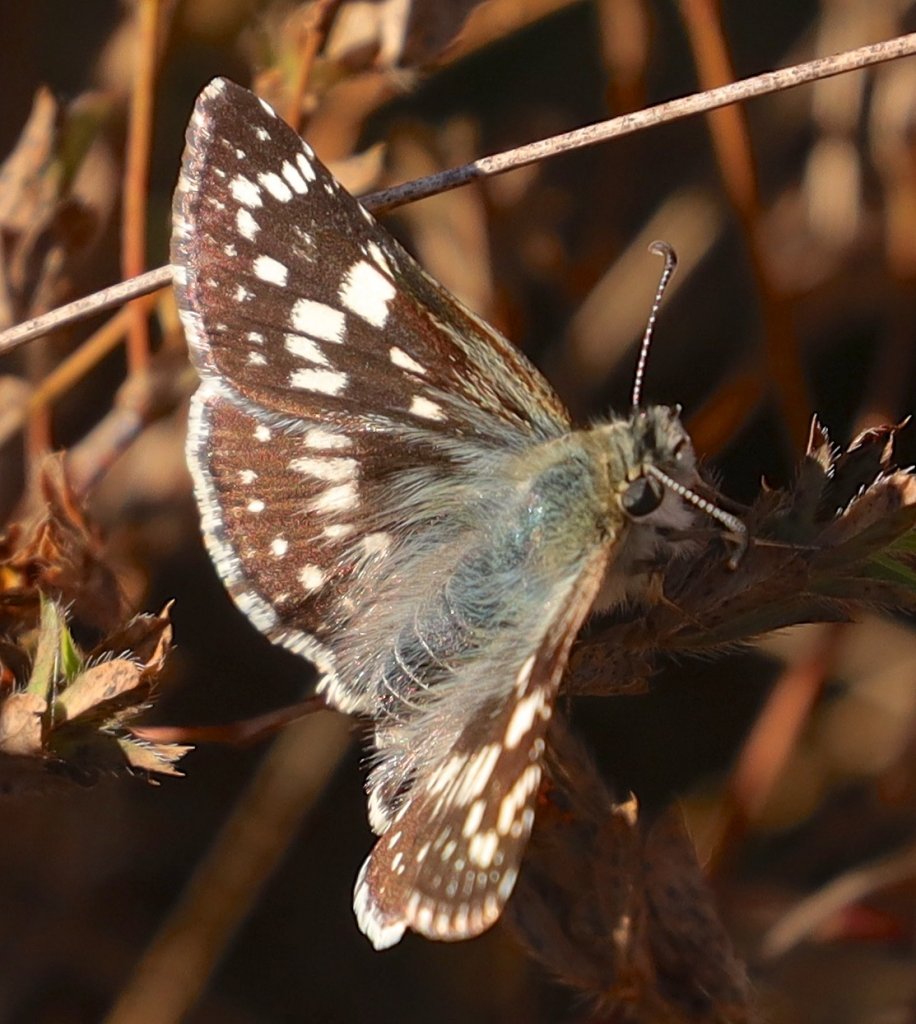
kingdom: Animalia
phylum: Arthropoda
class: Insecta
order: Lepidoptera
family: Hesperiidae
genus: Pyrgus
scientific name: Pyrgus communis
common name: Common Checkered-Skipper
